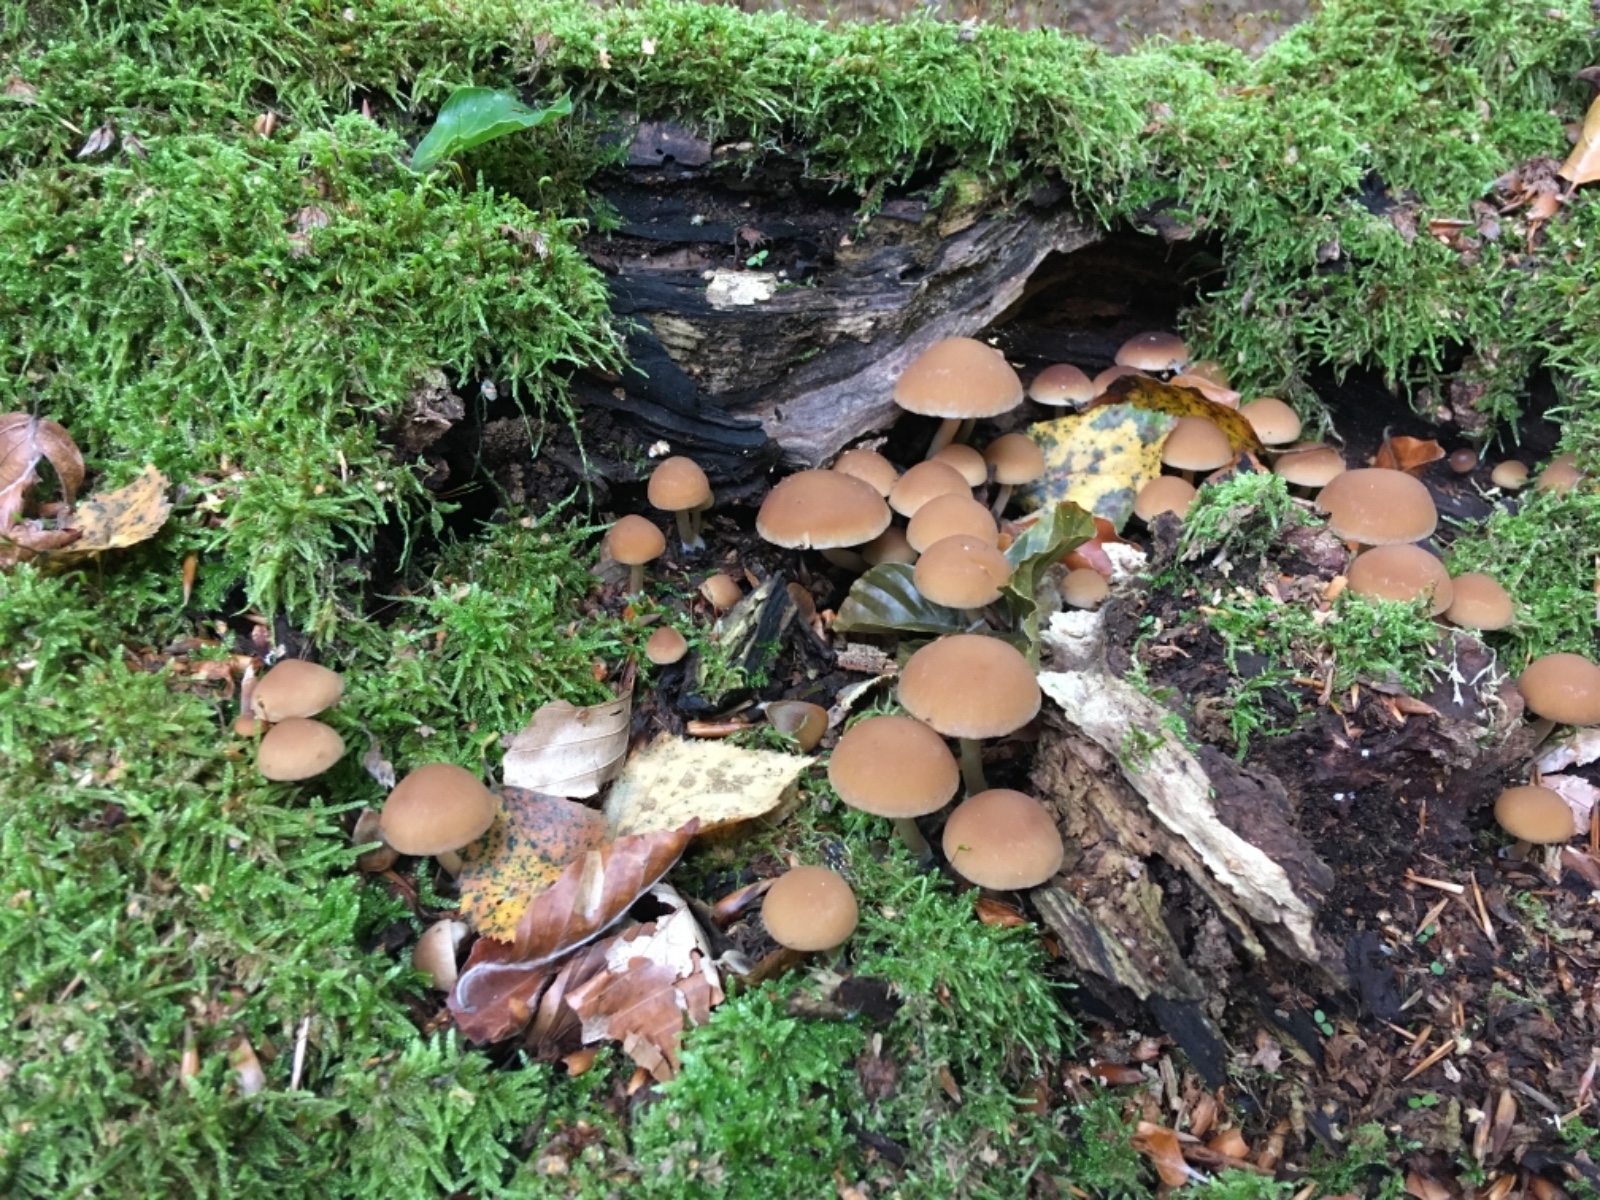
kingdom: Fungi
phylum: Basidiomycota
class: Agaricomycetes
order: Agaricales
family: Psathyrellaceae
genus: Psathyrella
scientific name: Psathyrella piluliformis
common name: lysstokket mørkhat
